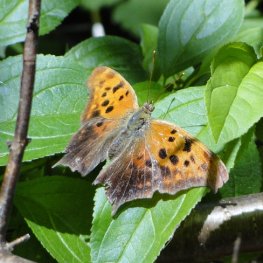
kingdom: Animalia
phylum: Arthropoda
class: Insecta
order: Lepidoptera
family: Nymphalidae
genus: Polygonia
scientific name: Polygonia interrogationis
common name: Question Mark
